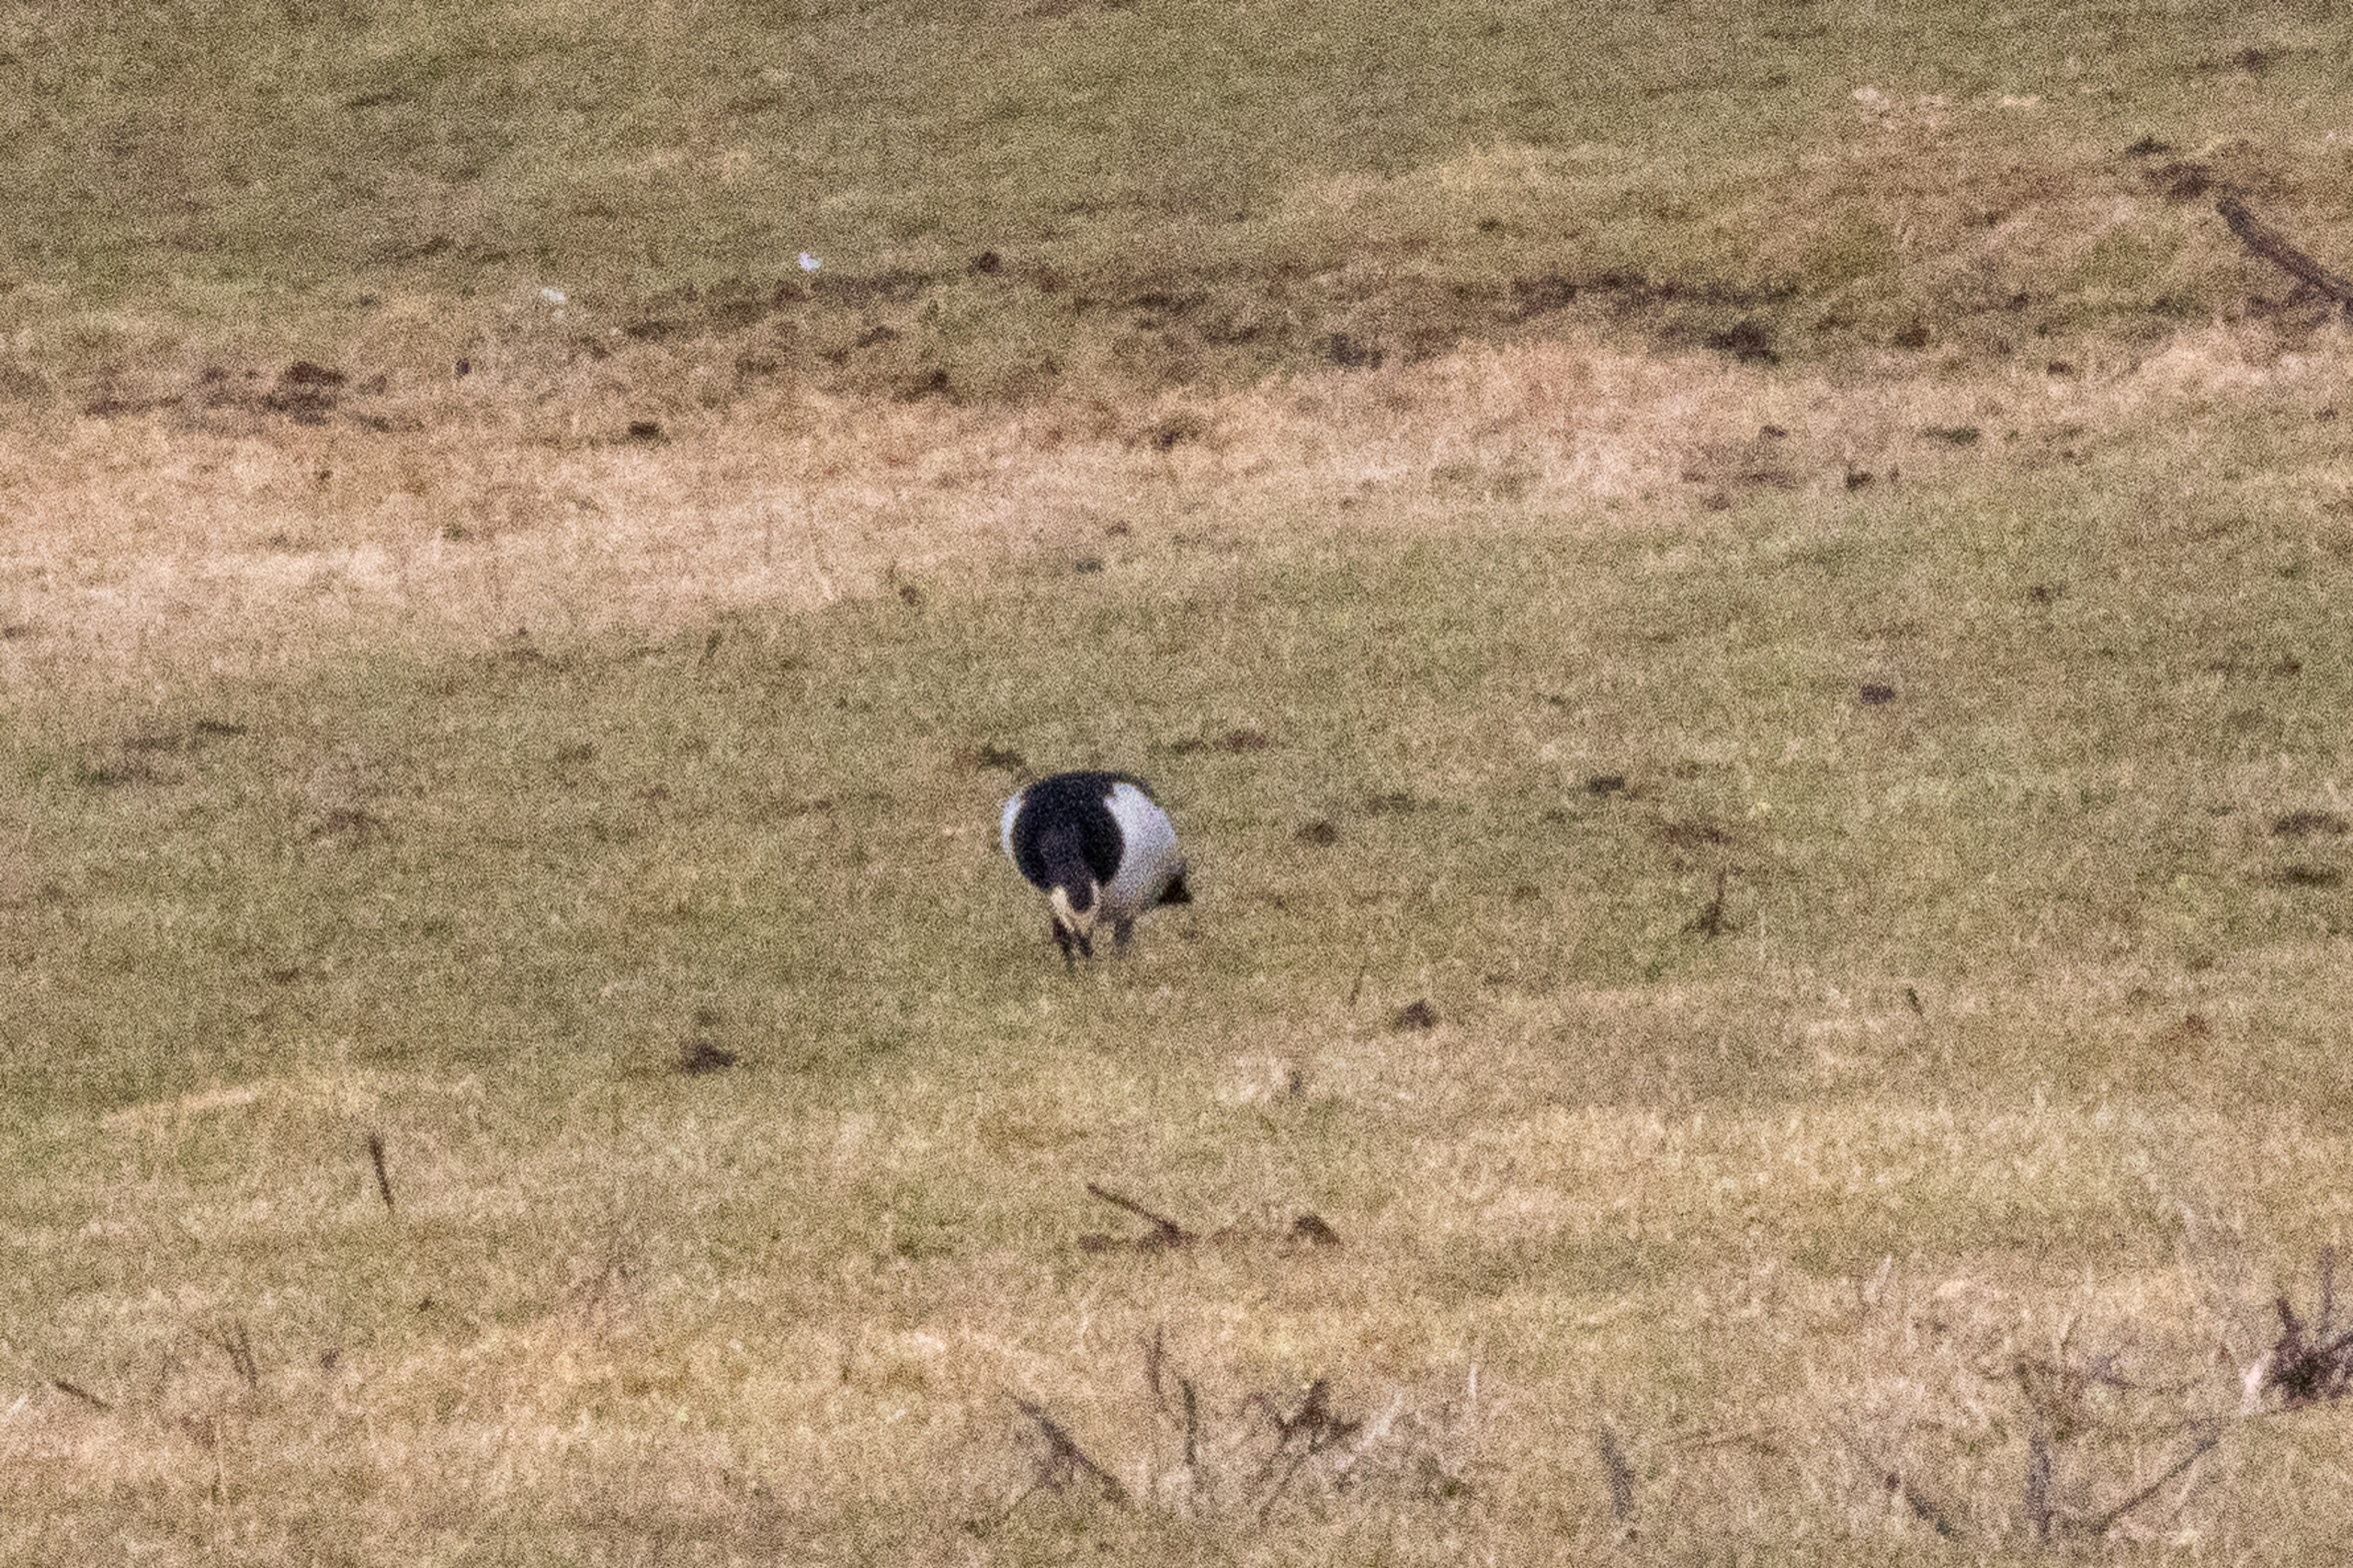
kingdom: Animalia
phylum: Chordata
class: Aves
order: Anseriformes
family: Anatidae
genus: Branta
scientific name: Branta leucopsis
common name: Bramgås
